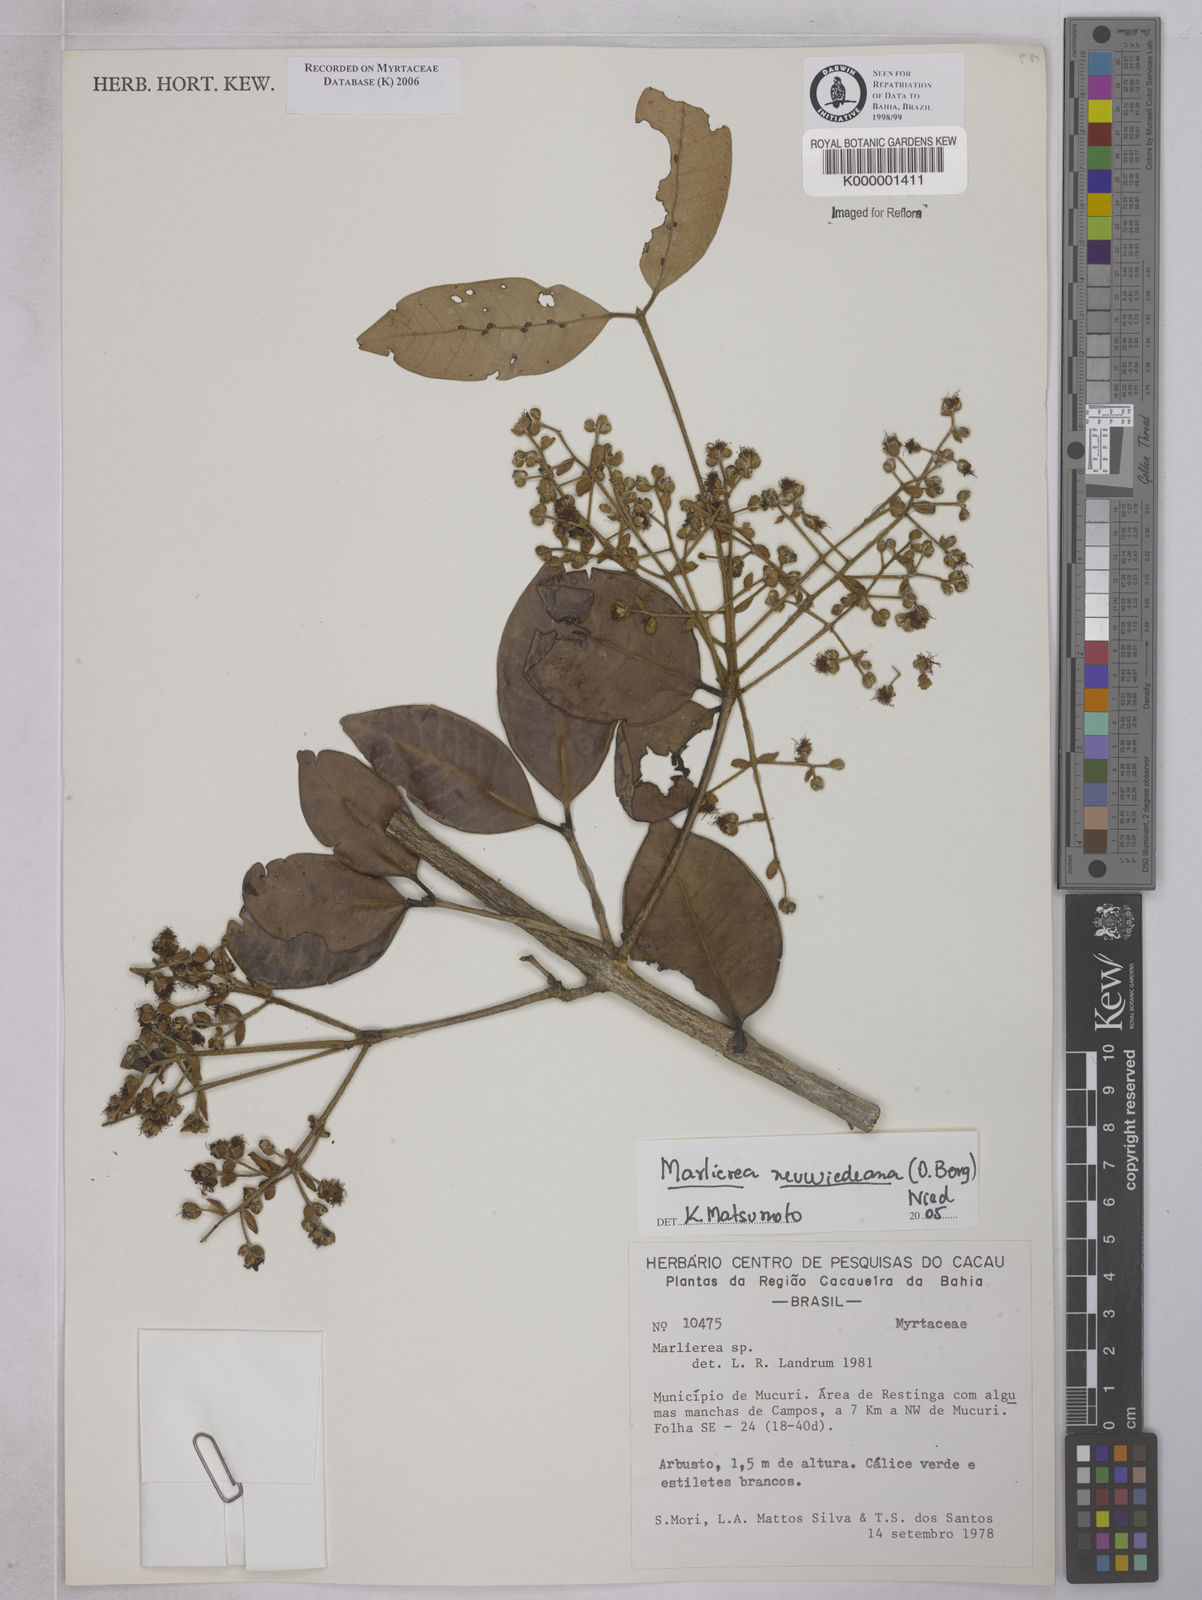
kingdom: Plantae
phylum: Tracheophyta
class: Magnoliopsida
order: Myrtales
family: Myrtaceae
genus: Marlierea
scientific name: Marlierea
